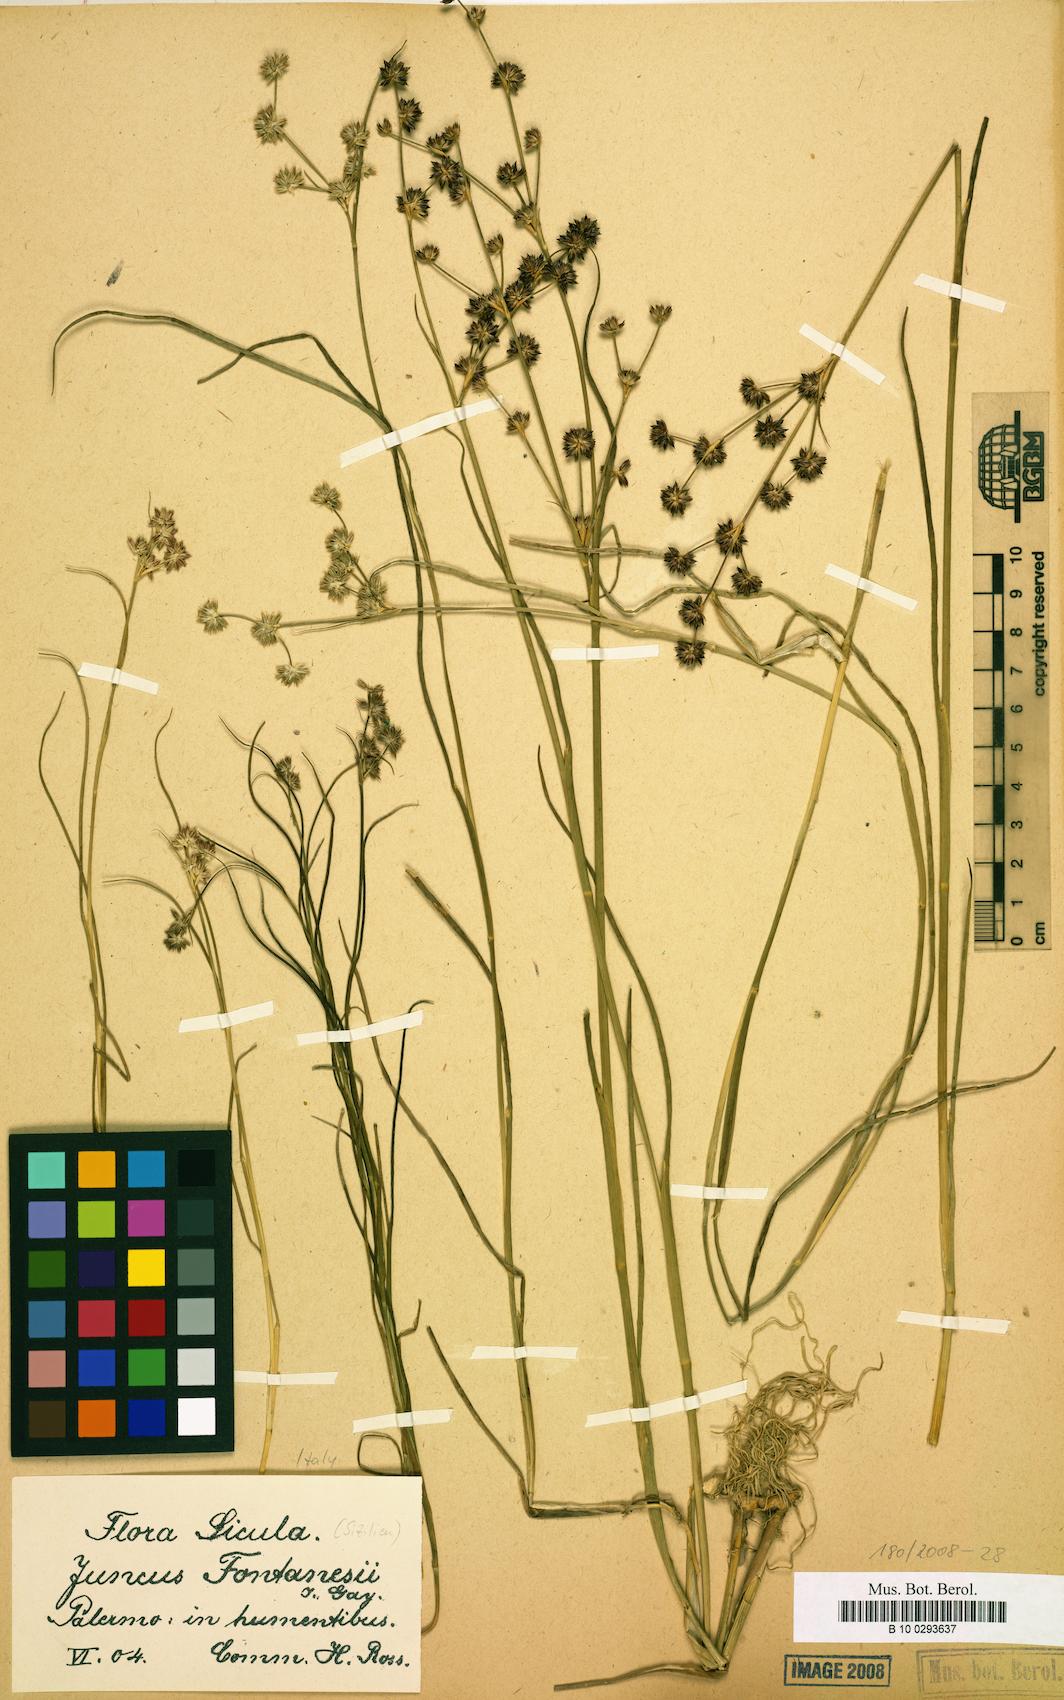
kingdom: Plantae
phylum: Tracheophyta
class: Liliopsida
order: Poales
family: Juncaceae
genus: Juncus
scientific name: Juncus fontanesii
